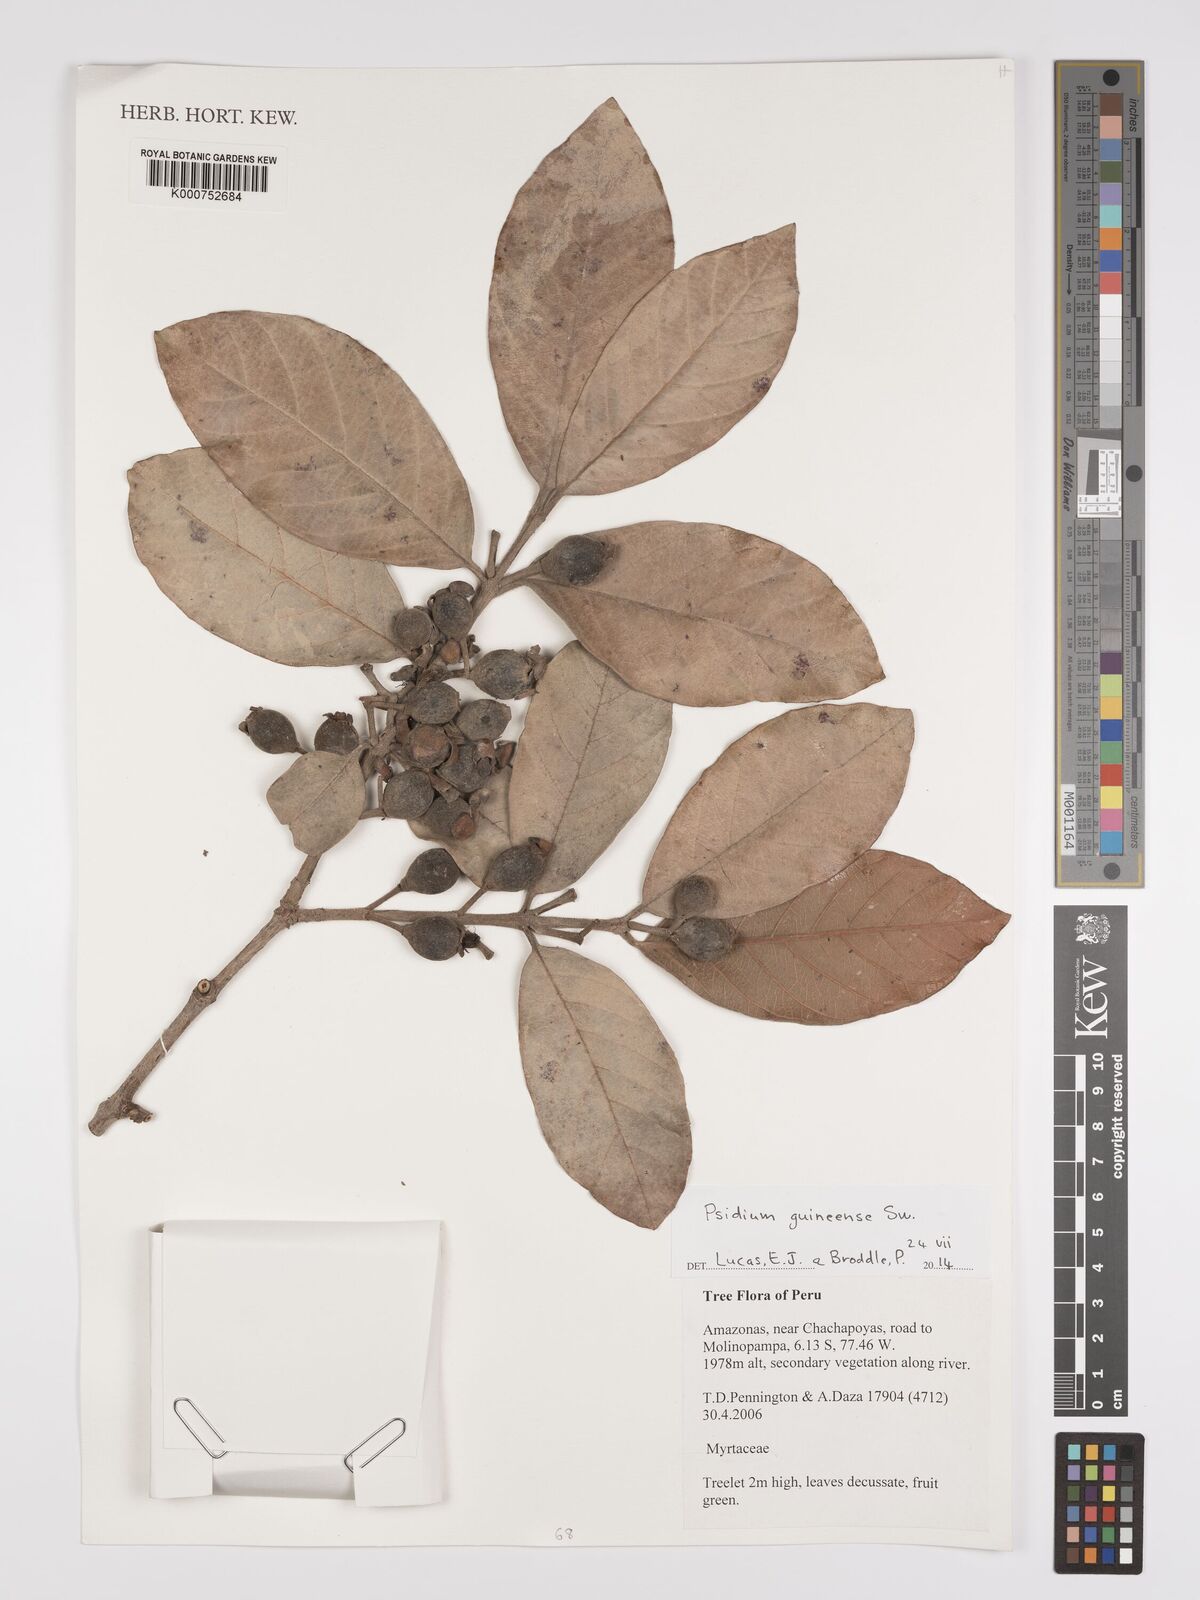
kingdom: Plantae
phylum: Tracheophyta
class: Magnoliopsida
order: Myrtales
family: Myrtaceae
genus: Psidium
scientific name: Psidium guineense
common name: Brazilian guava
